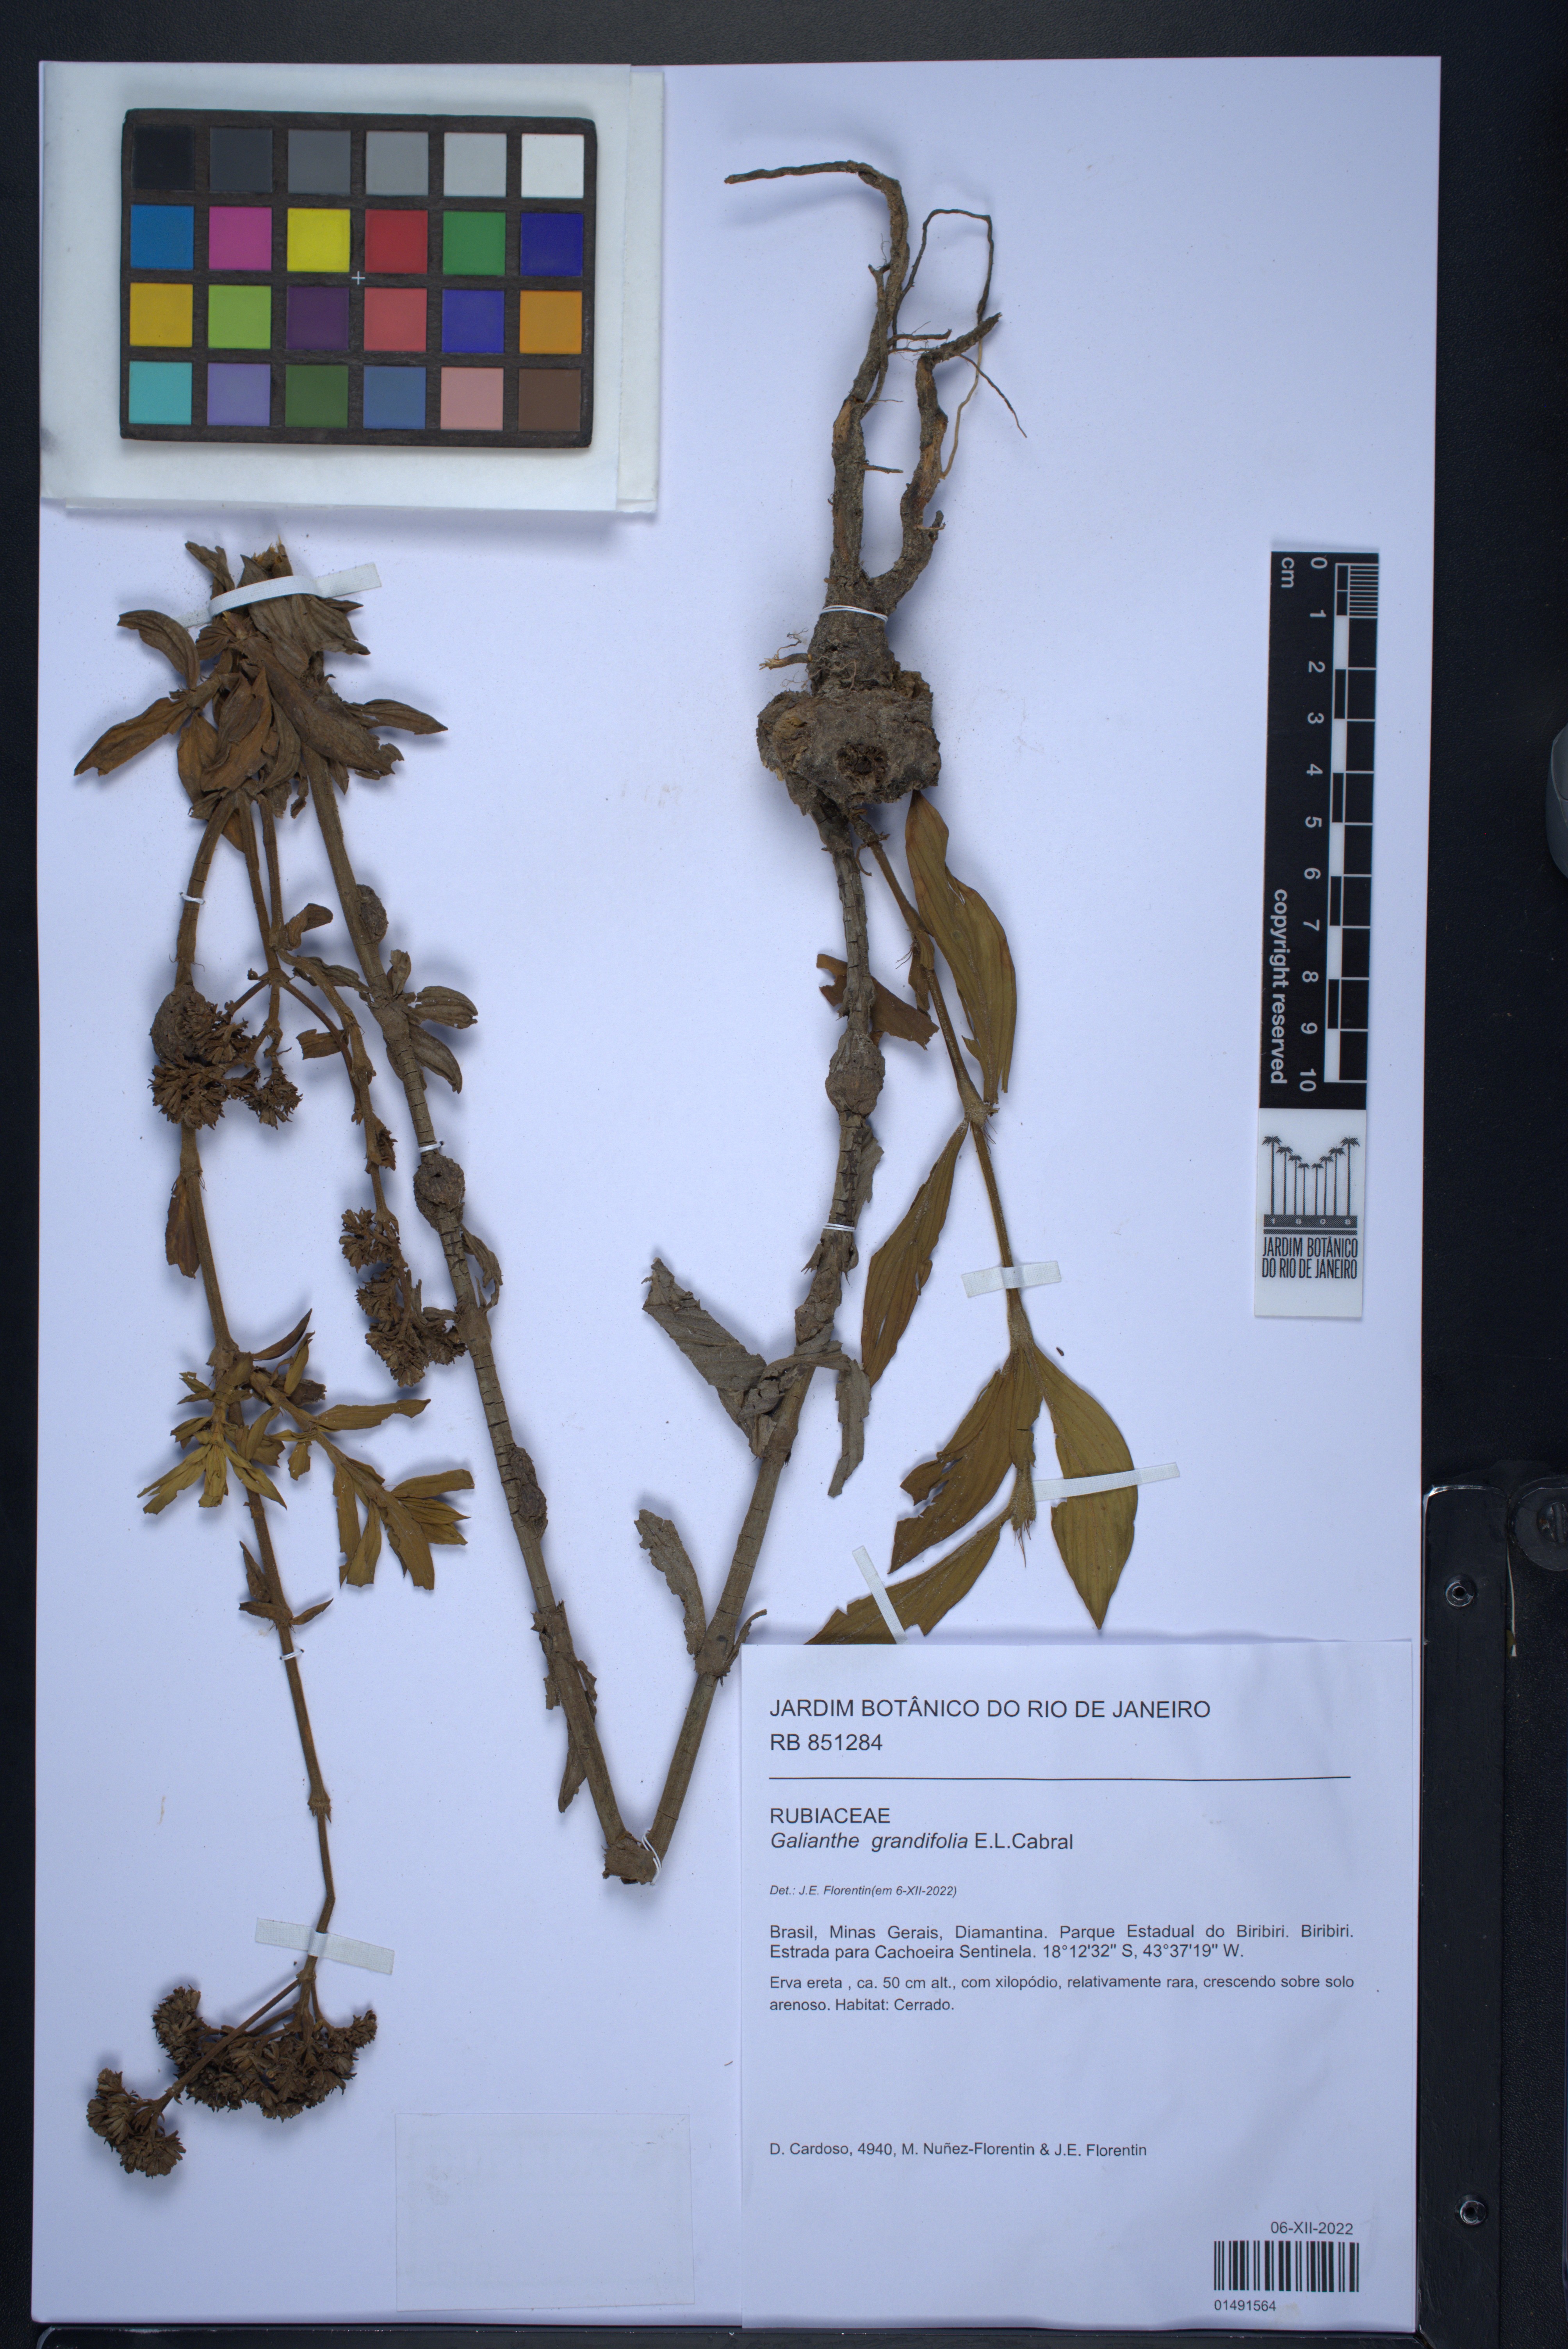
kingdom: Plantae
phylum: Tracheophyta
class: Magnoliopsida
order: Gentianales
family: Rubiaceae
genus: Galianthe
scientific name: Galianthe grandifolia
